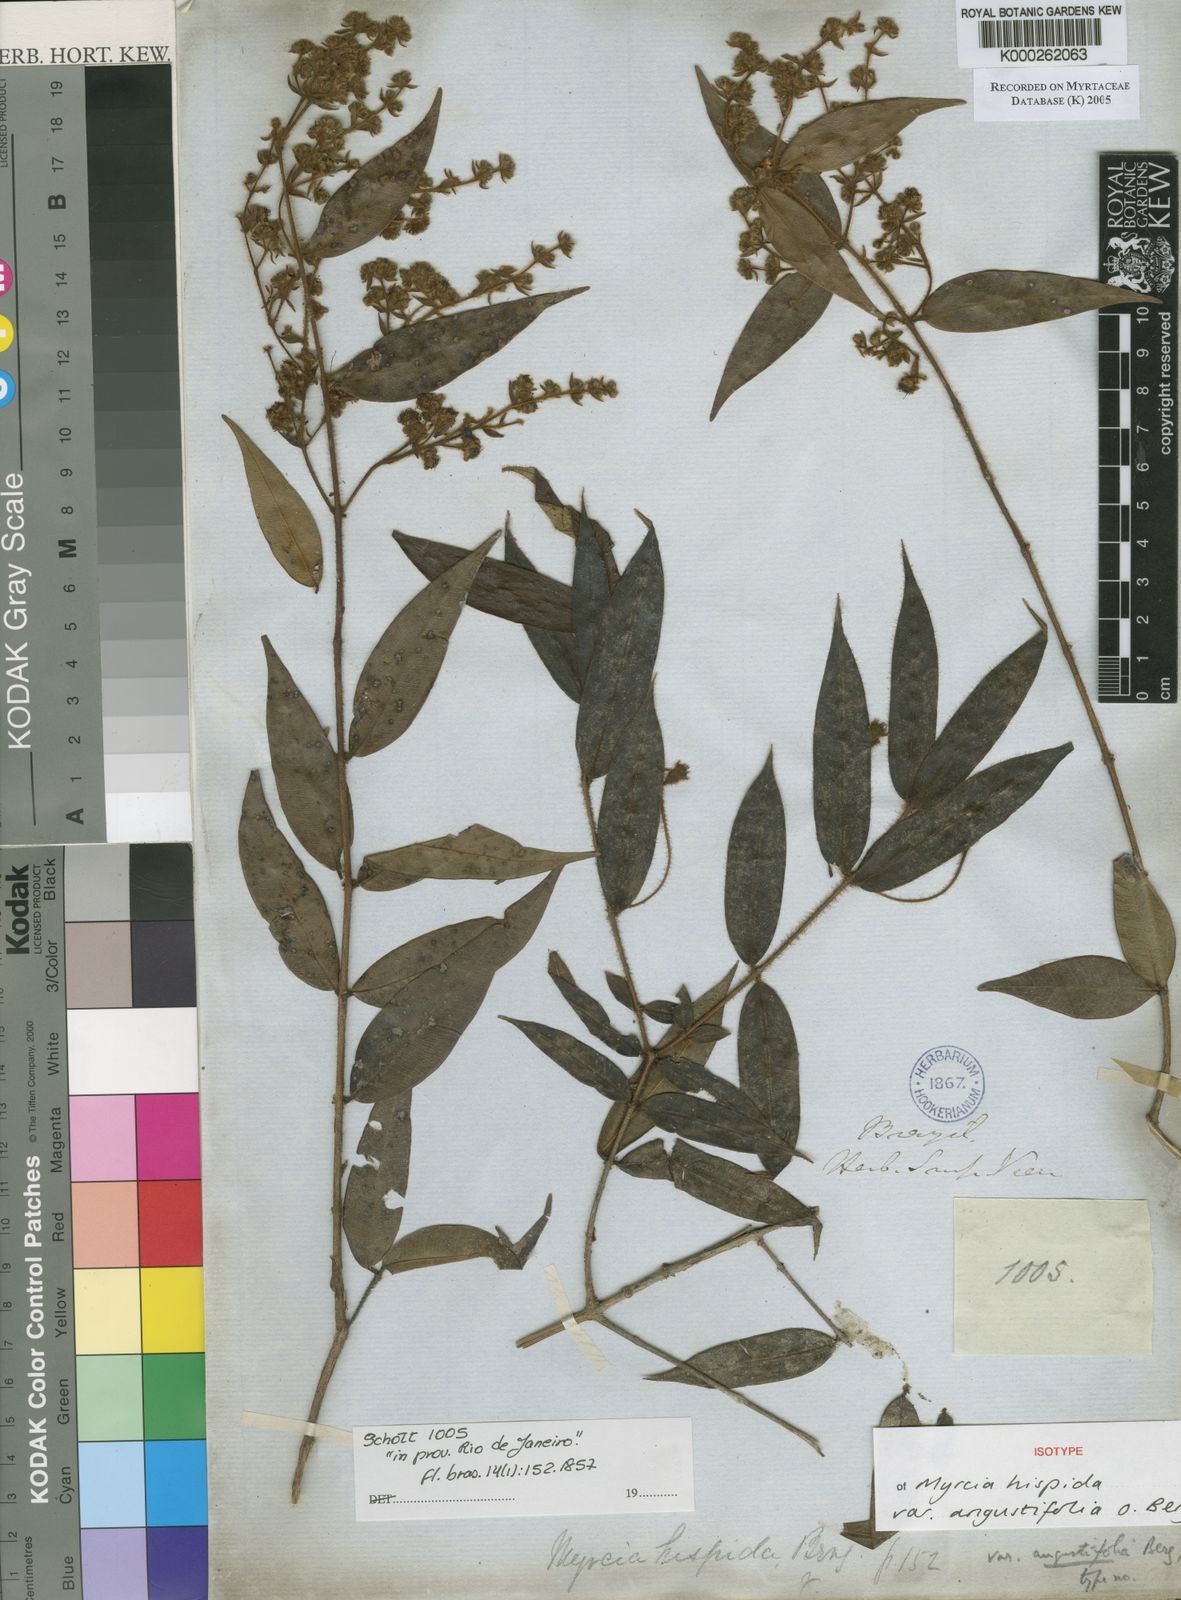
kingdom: Plantae
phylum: Tracheophyta
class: Magnoliopsida
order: Myrtales
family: Myrtaceae
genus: Myrcia
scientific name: Myrcia eriopus
